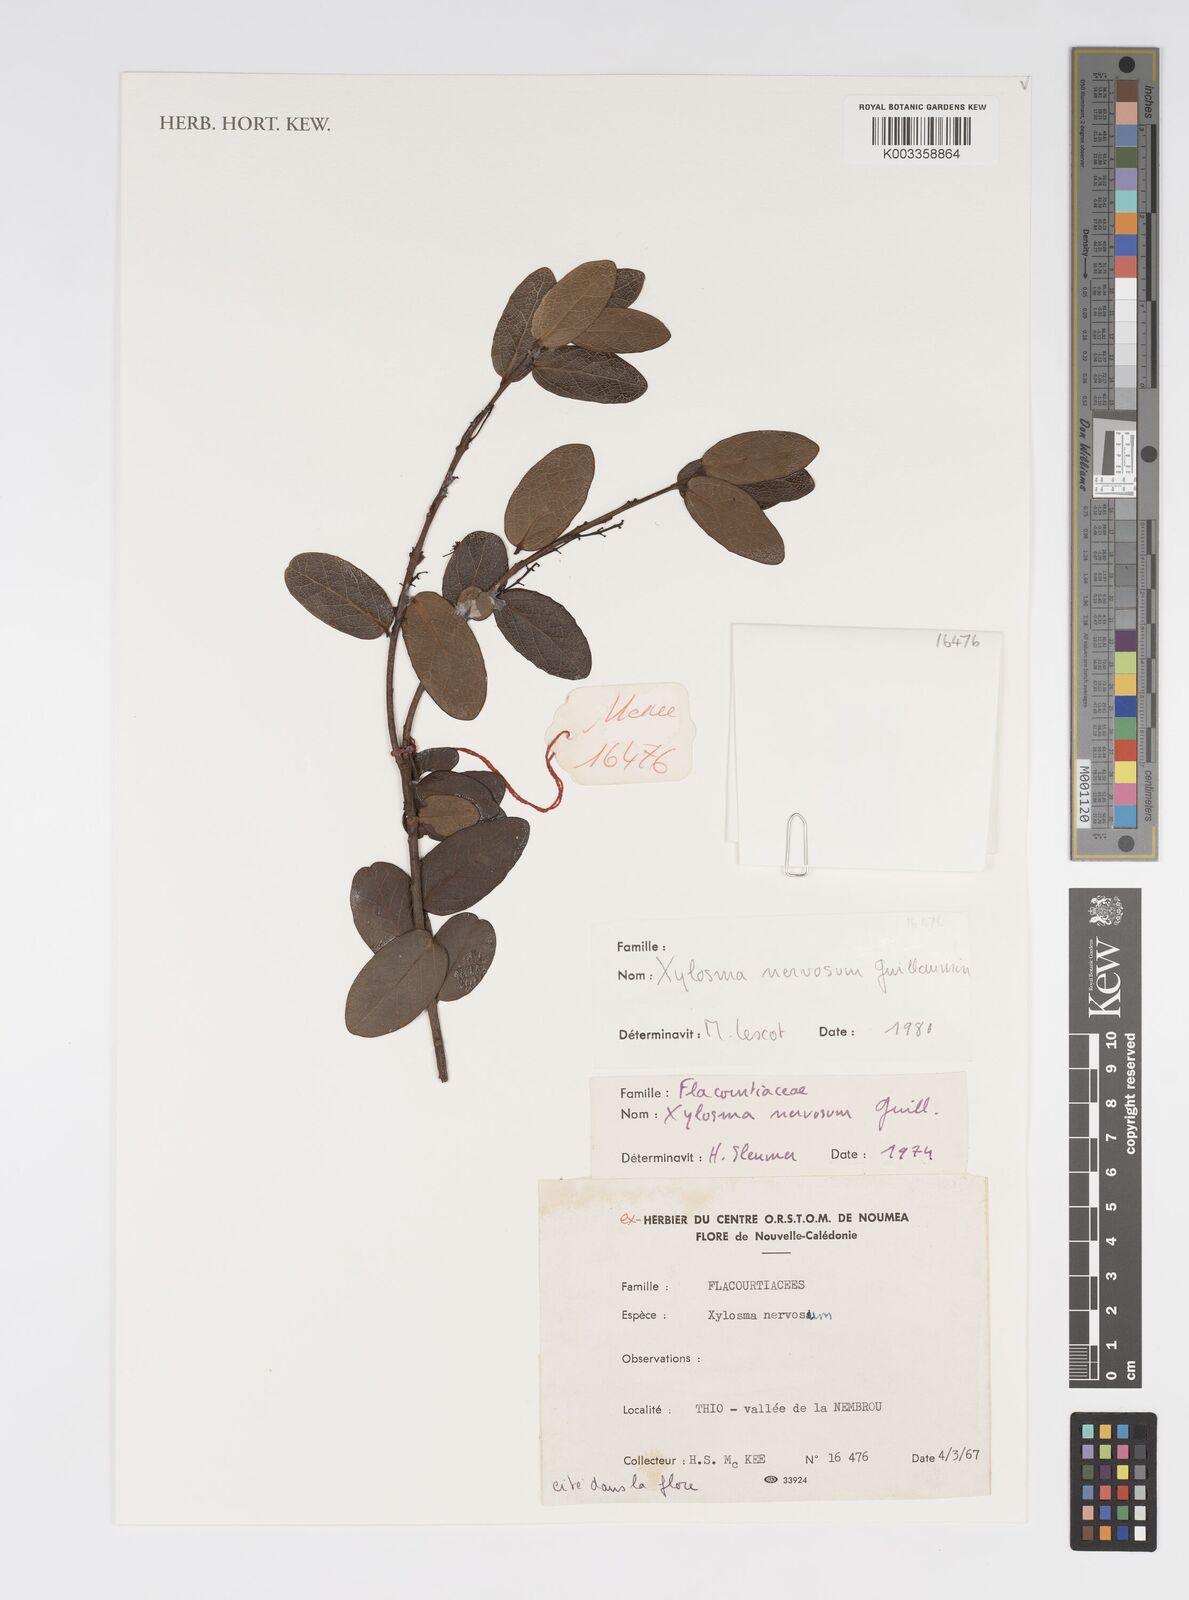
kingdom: Plantae
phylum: Tracheophyta
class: Magnoliopsida
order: Malpighiales
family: Salicaceae
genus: Xylosma
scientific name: Xylosma nervosa
